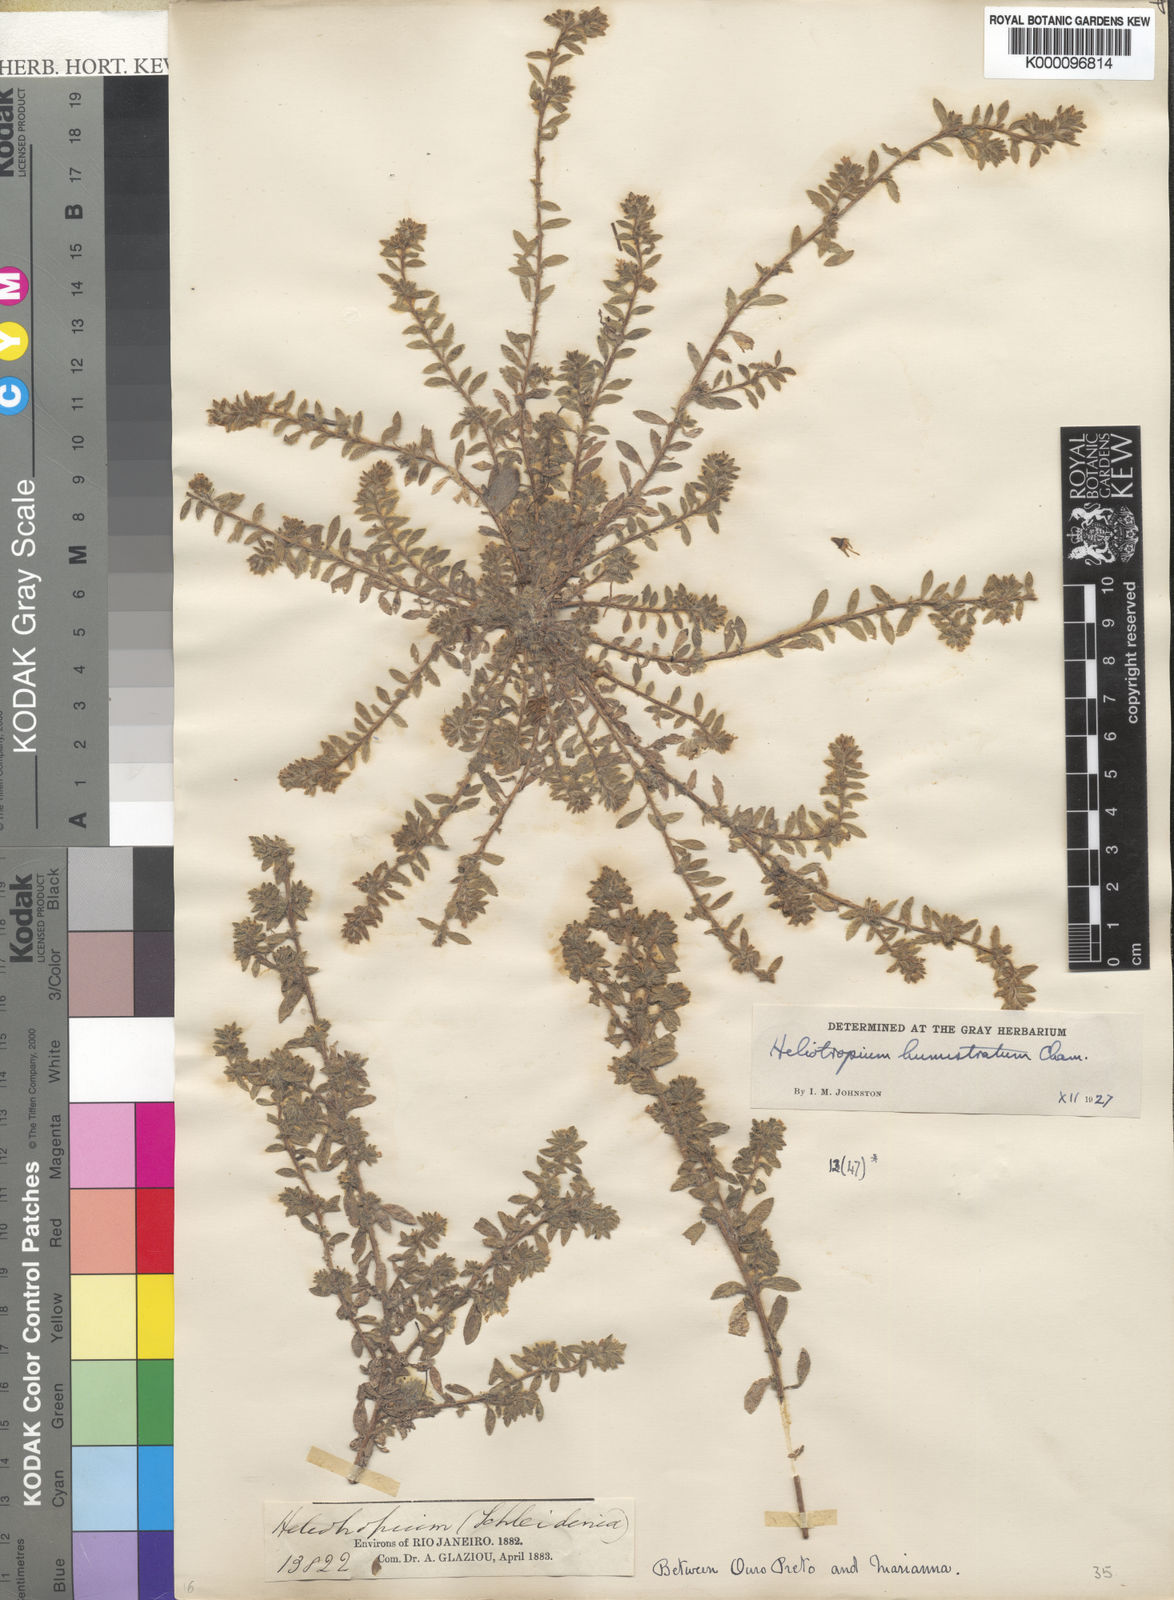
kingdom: Plantae
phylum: Tracheophyta
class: Magnoliopsida
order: Boraginales
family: Heliotropiaceae
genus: Euploca
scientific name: Euploca humistrata
